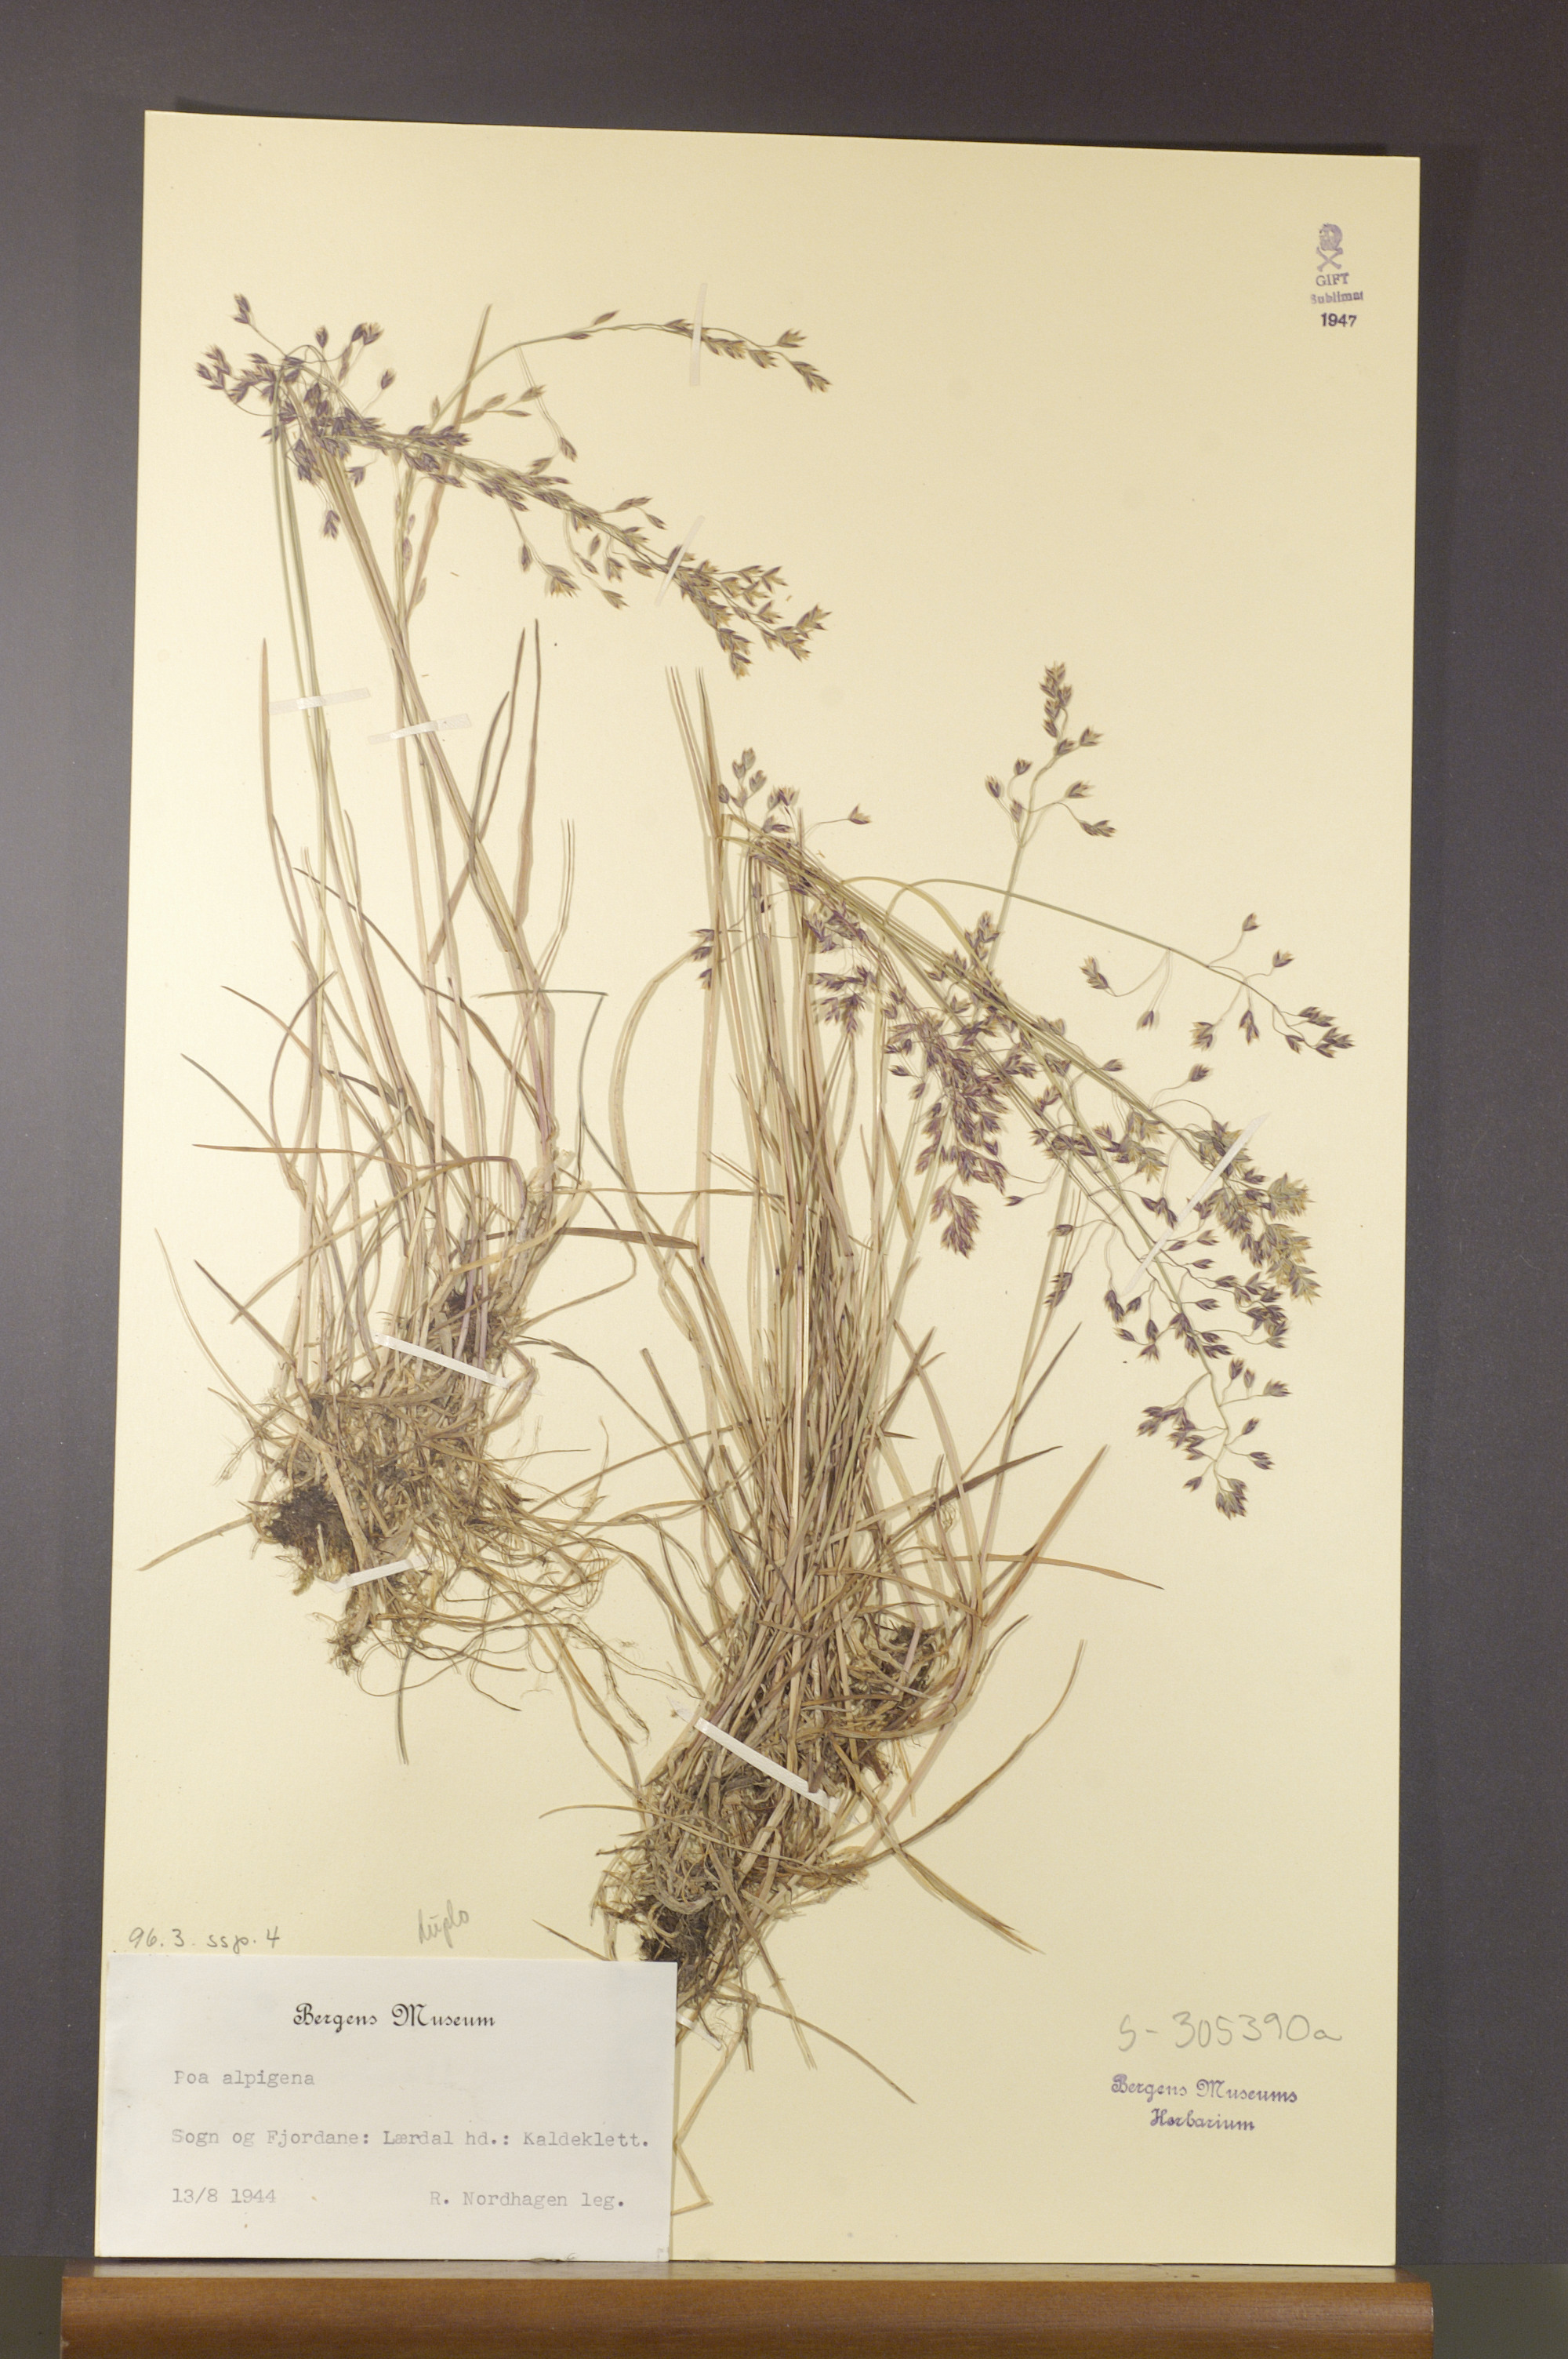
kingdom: Plantae
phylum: Tracheophyta
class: Liliopsida
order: Poales
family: Poaceae
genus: Poa
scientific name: Poa alpigena
